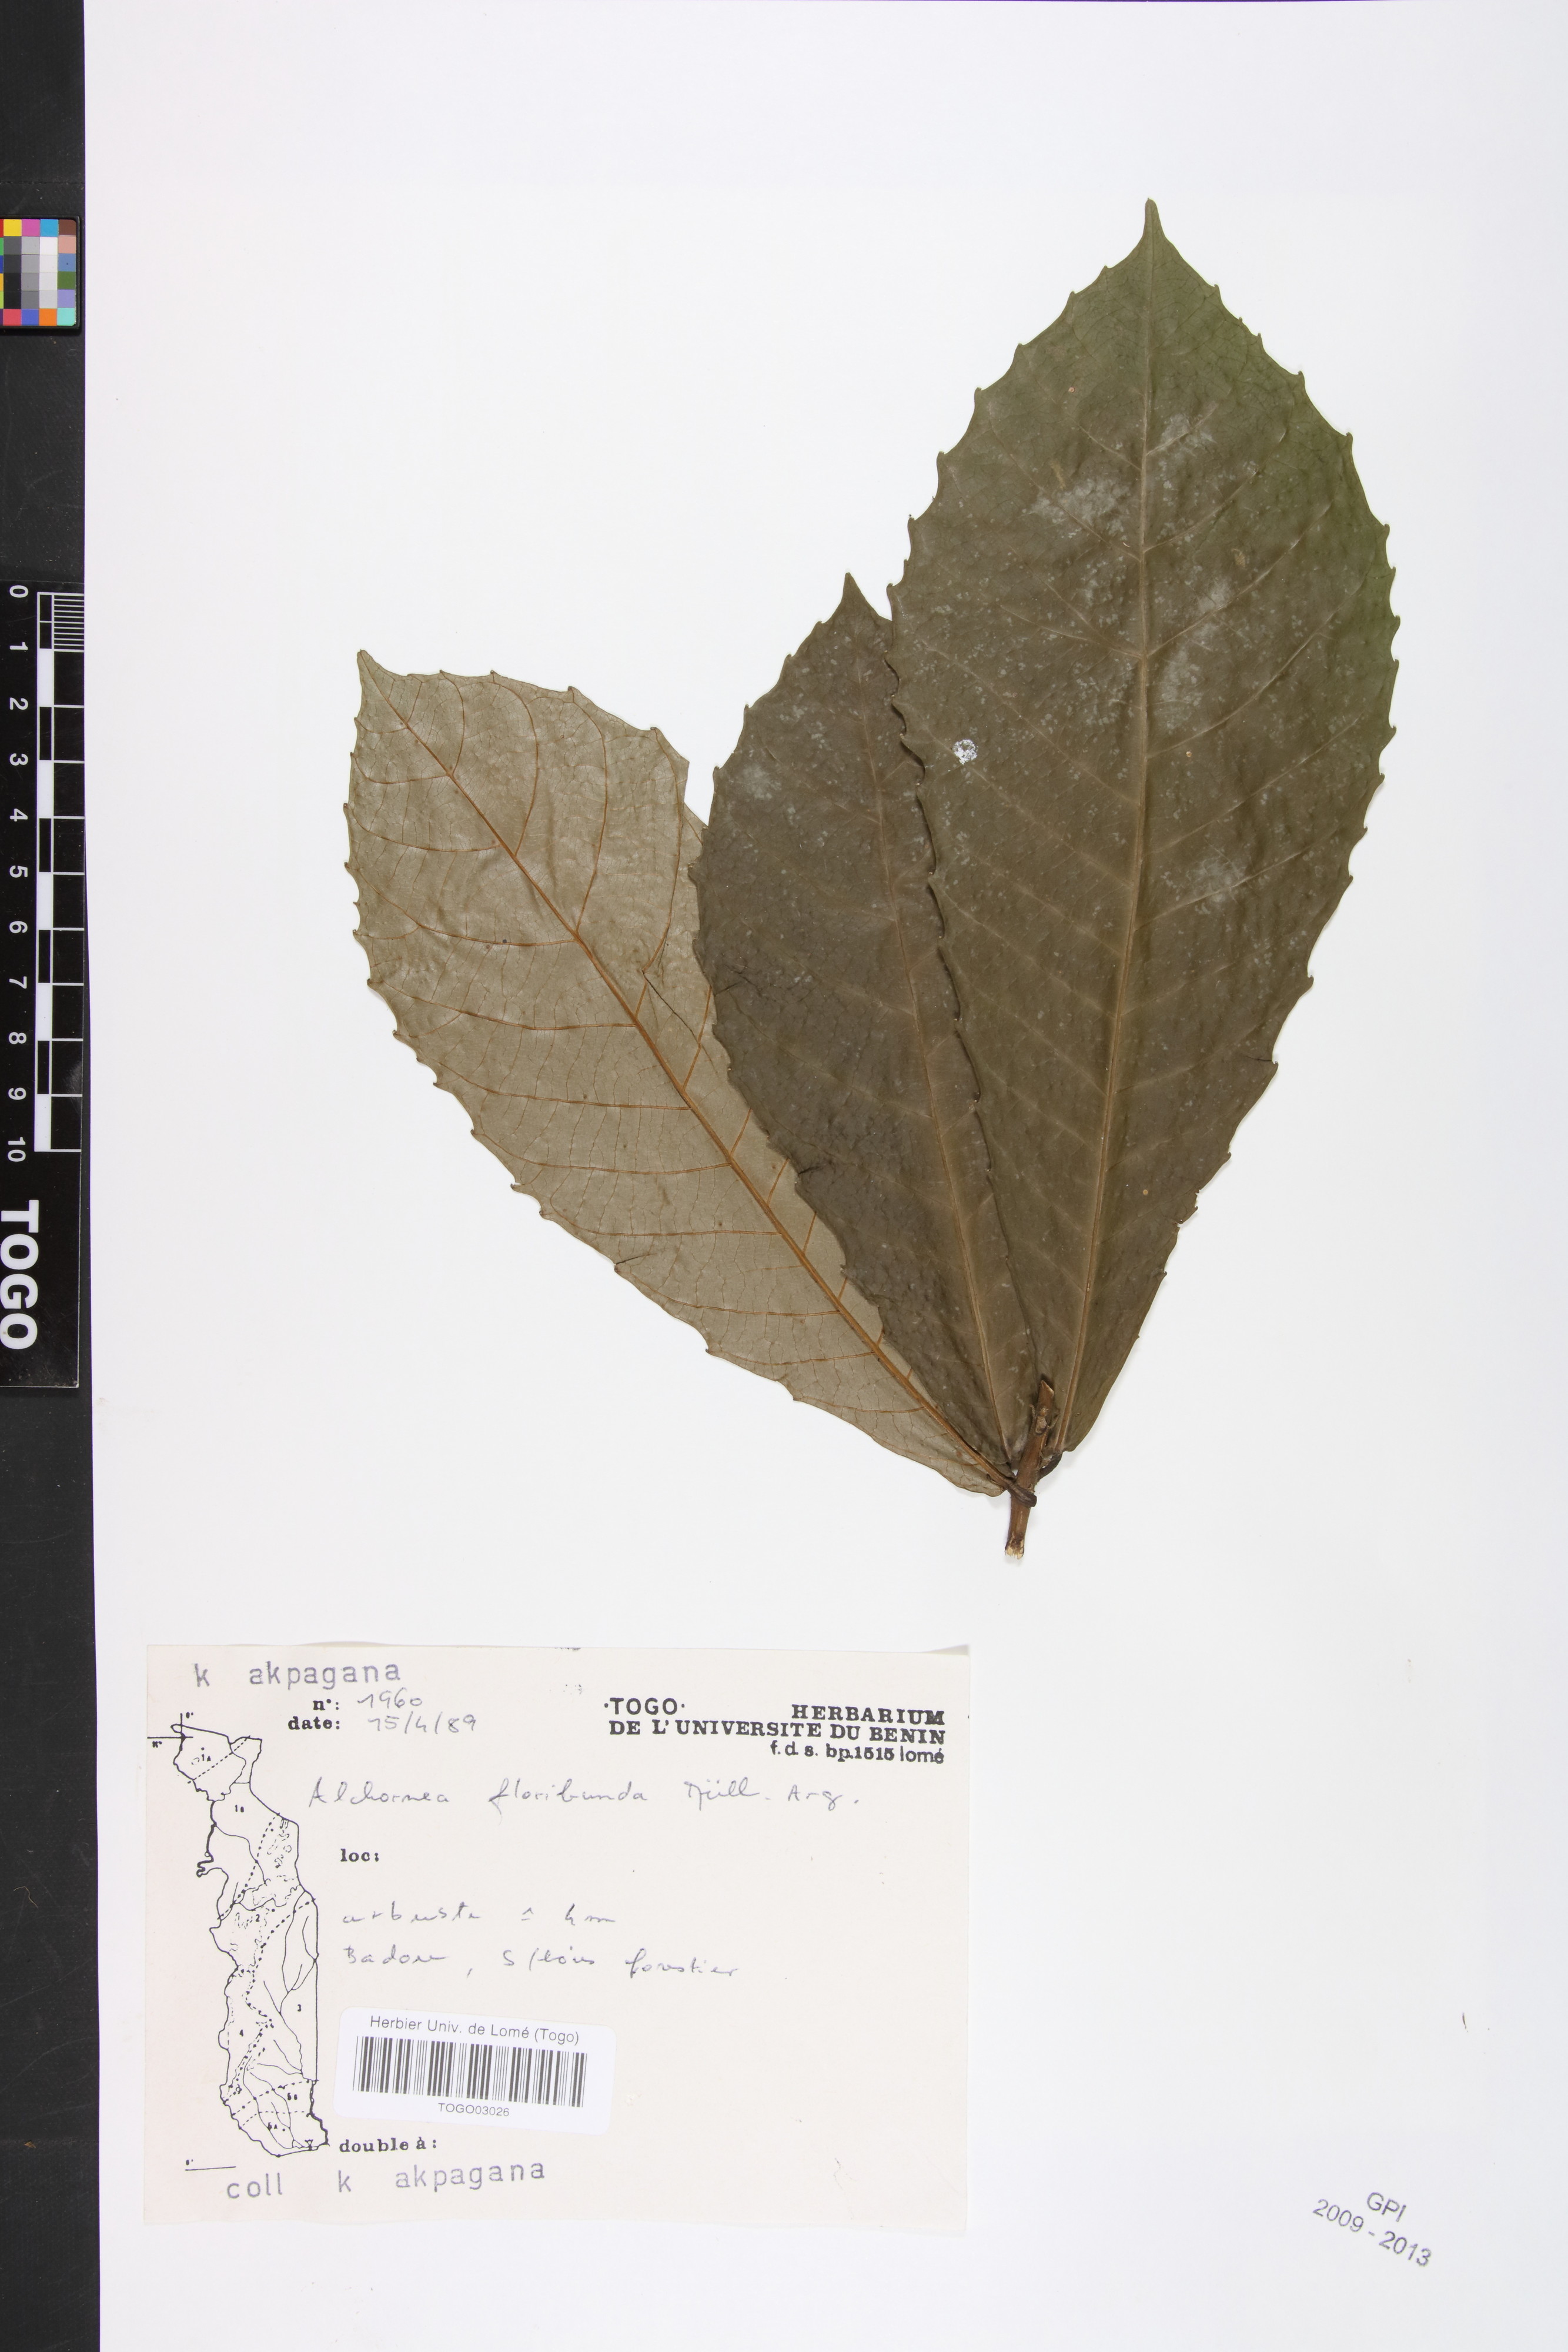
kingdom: Plantae
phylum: Tracheophyta
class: Magnoliopsida
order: Malpighiales
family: Euphorbiaceae
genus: Alchornea
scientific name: Alchornea floribunda
